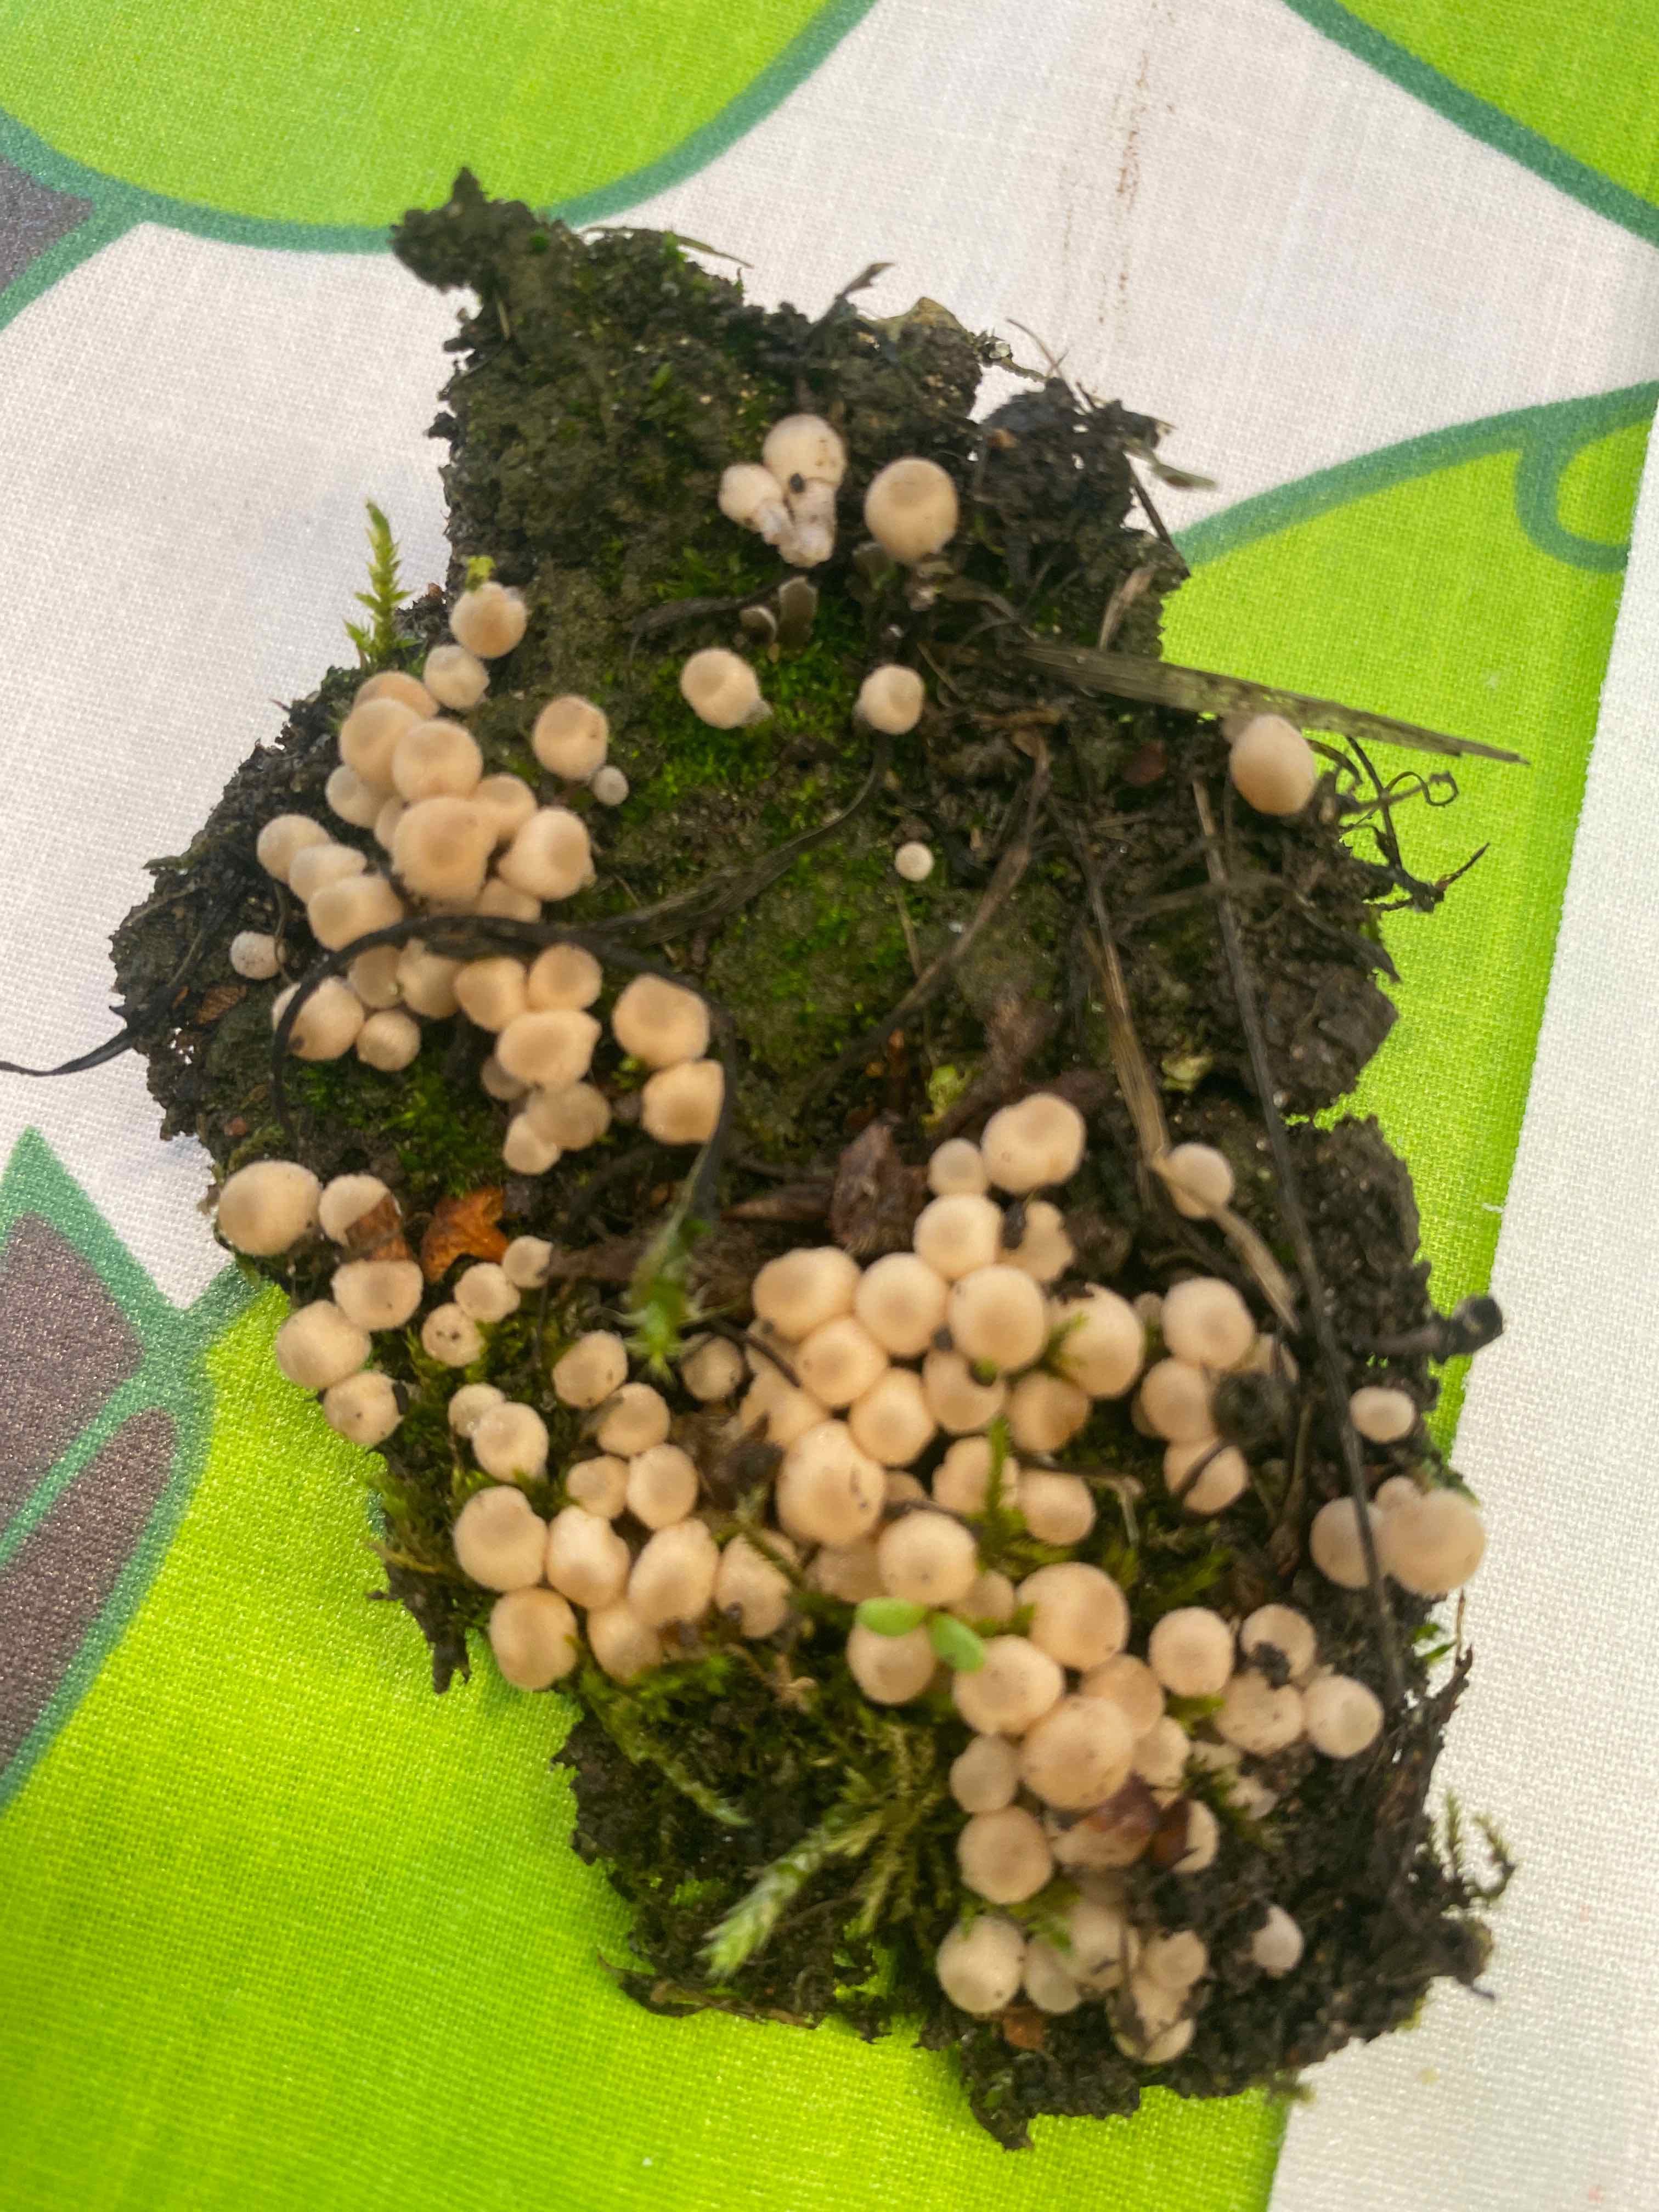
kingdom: Fungi
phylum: Basidiomycota
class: Agaricomycetes
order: Agaricales
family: Psathyrellaceae
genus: Coprinellus
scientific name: Coprinellus disseminatus
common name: bredsået blækhat
